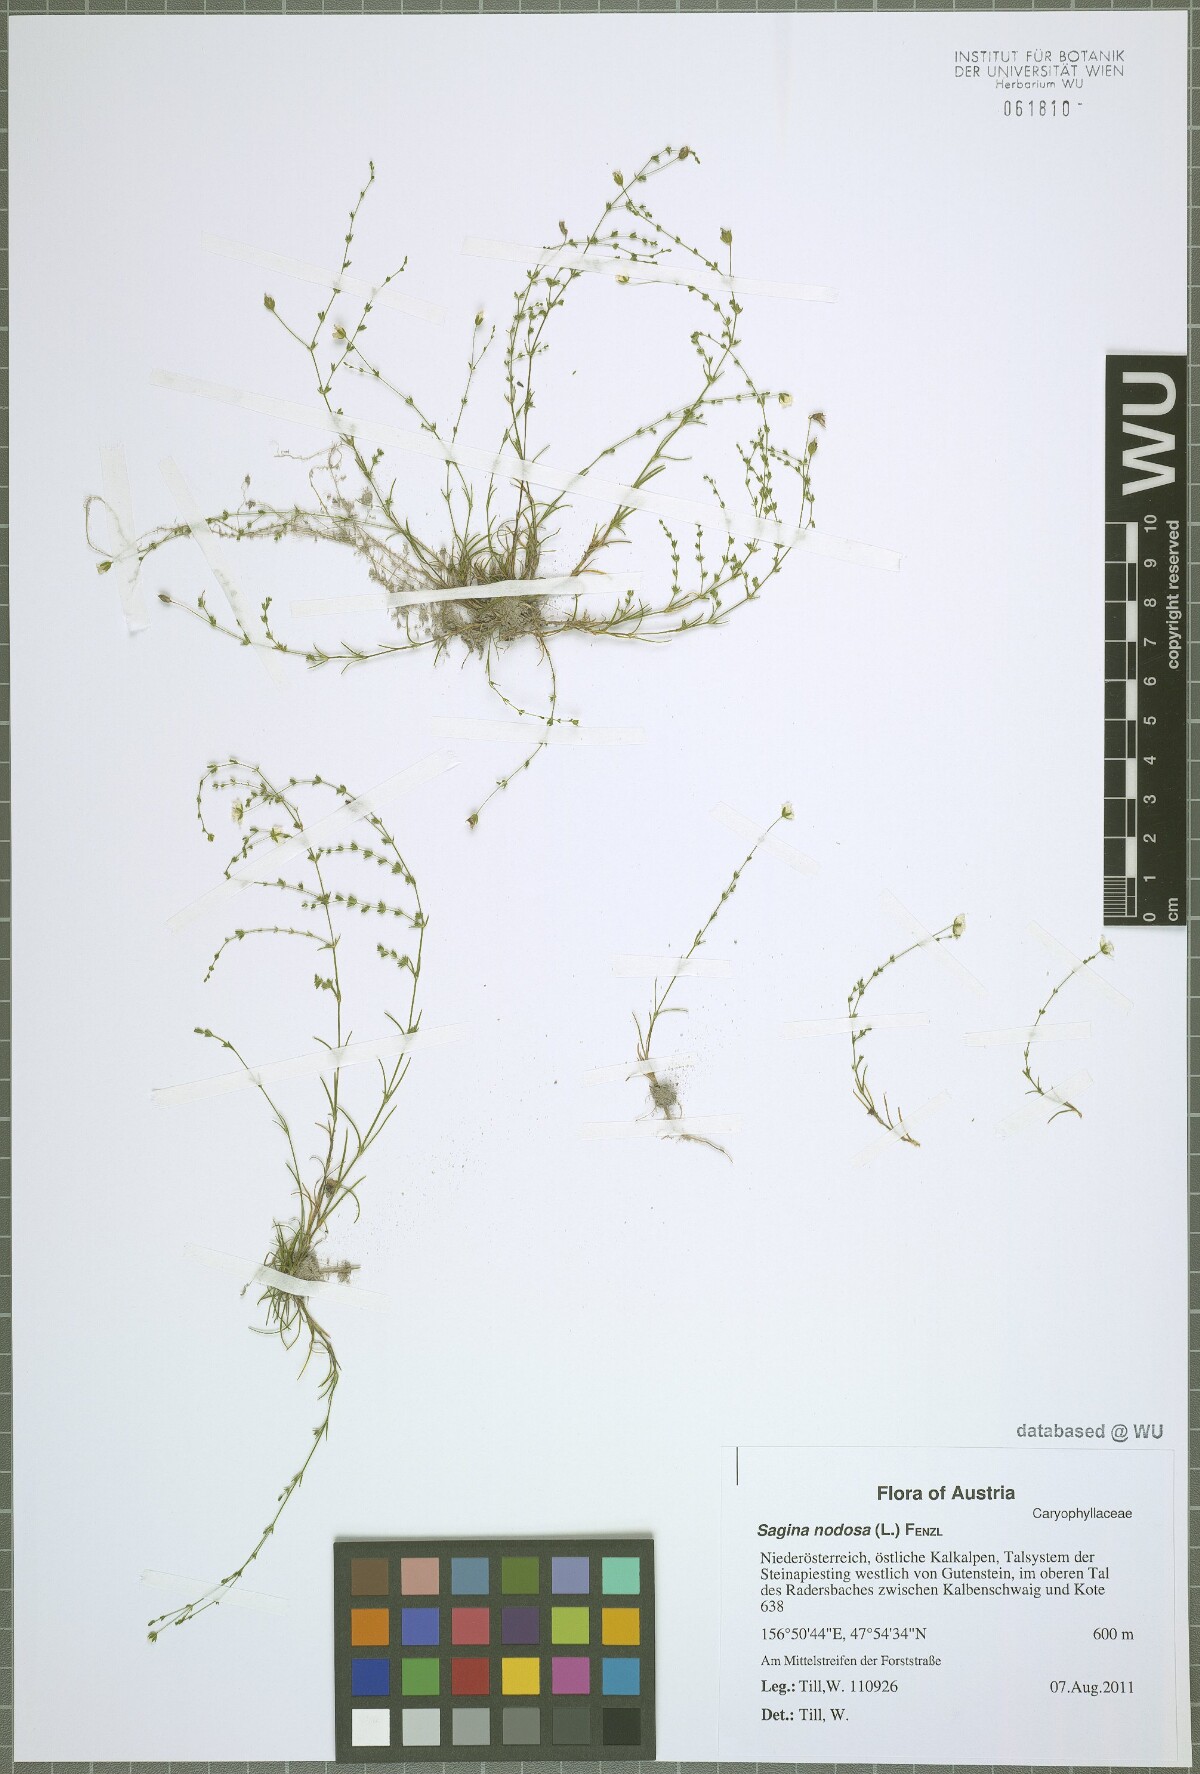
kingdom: Plantae
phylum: Tracheophyta
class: Magnoliopsida
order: Caryophyllales
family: Caryophyllaceae
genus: Sagina
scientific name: Sagina nodosa
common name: Knotted pearlwort
